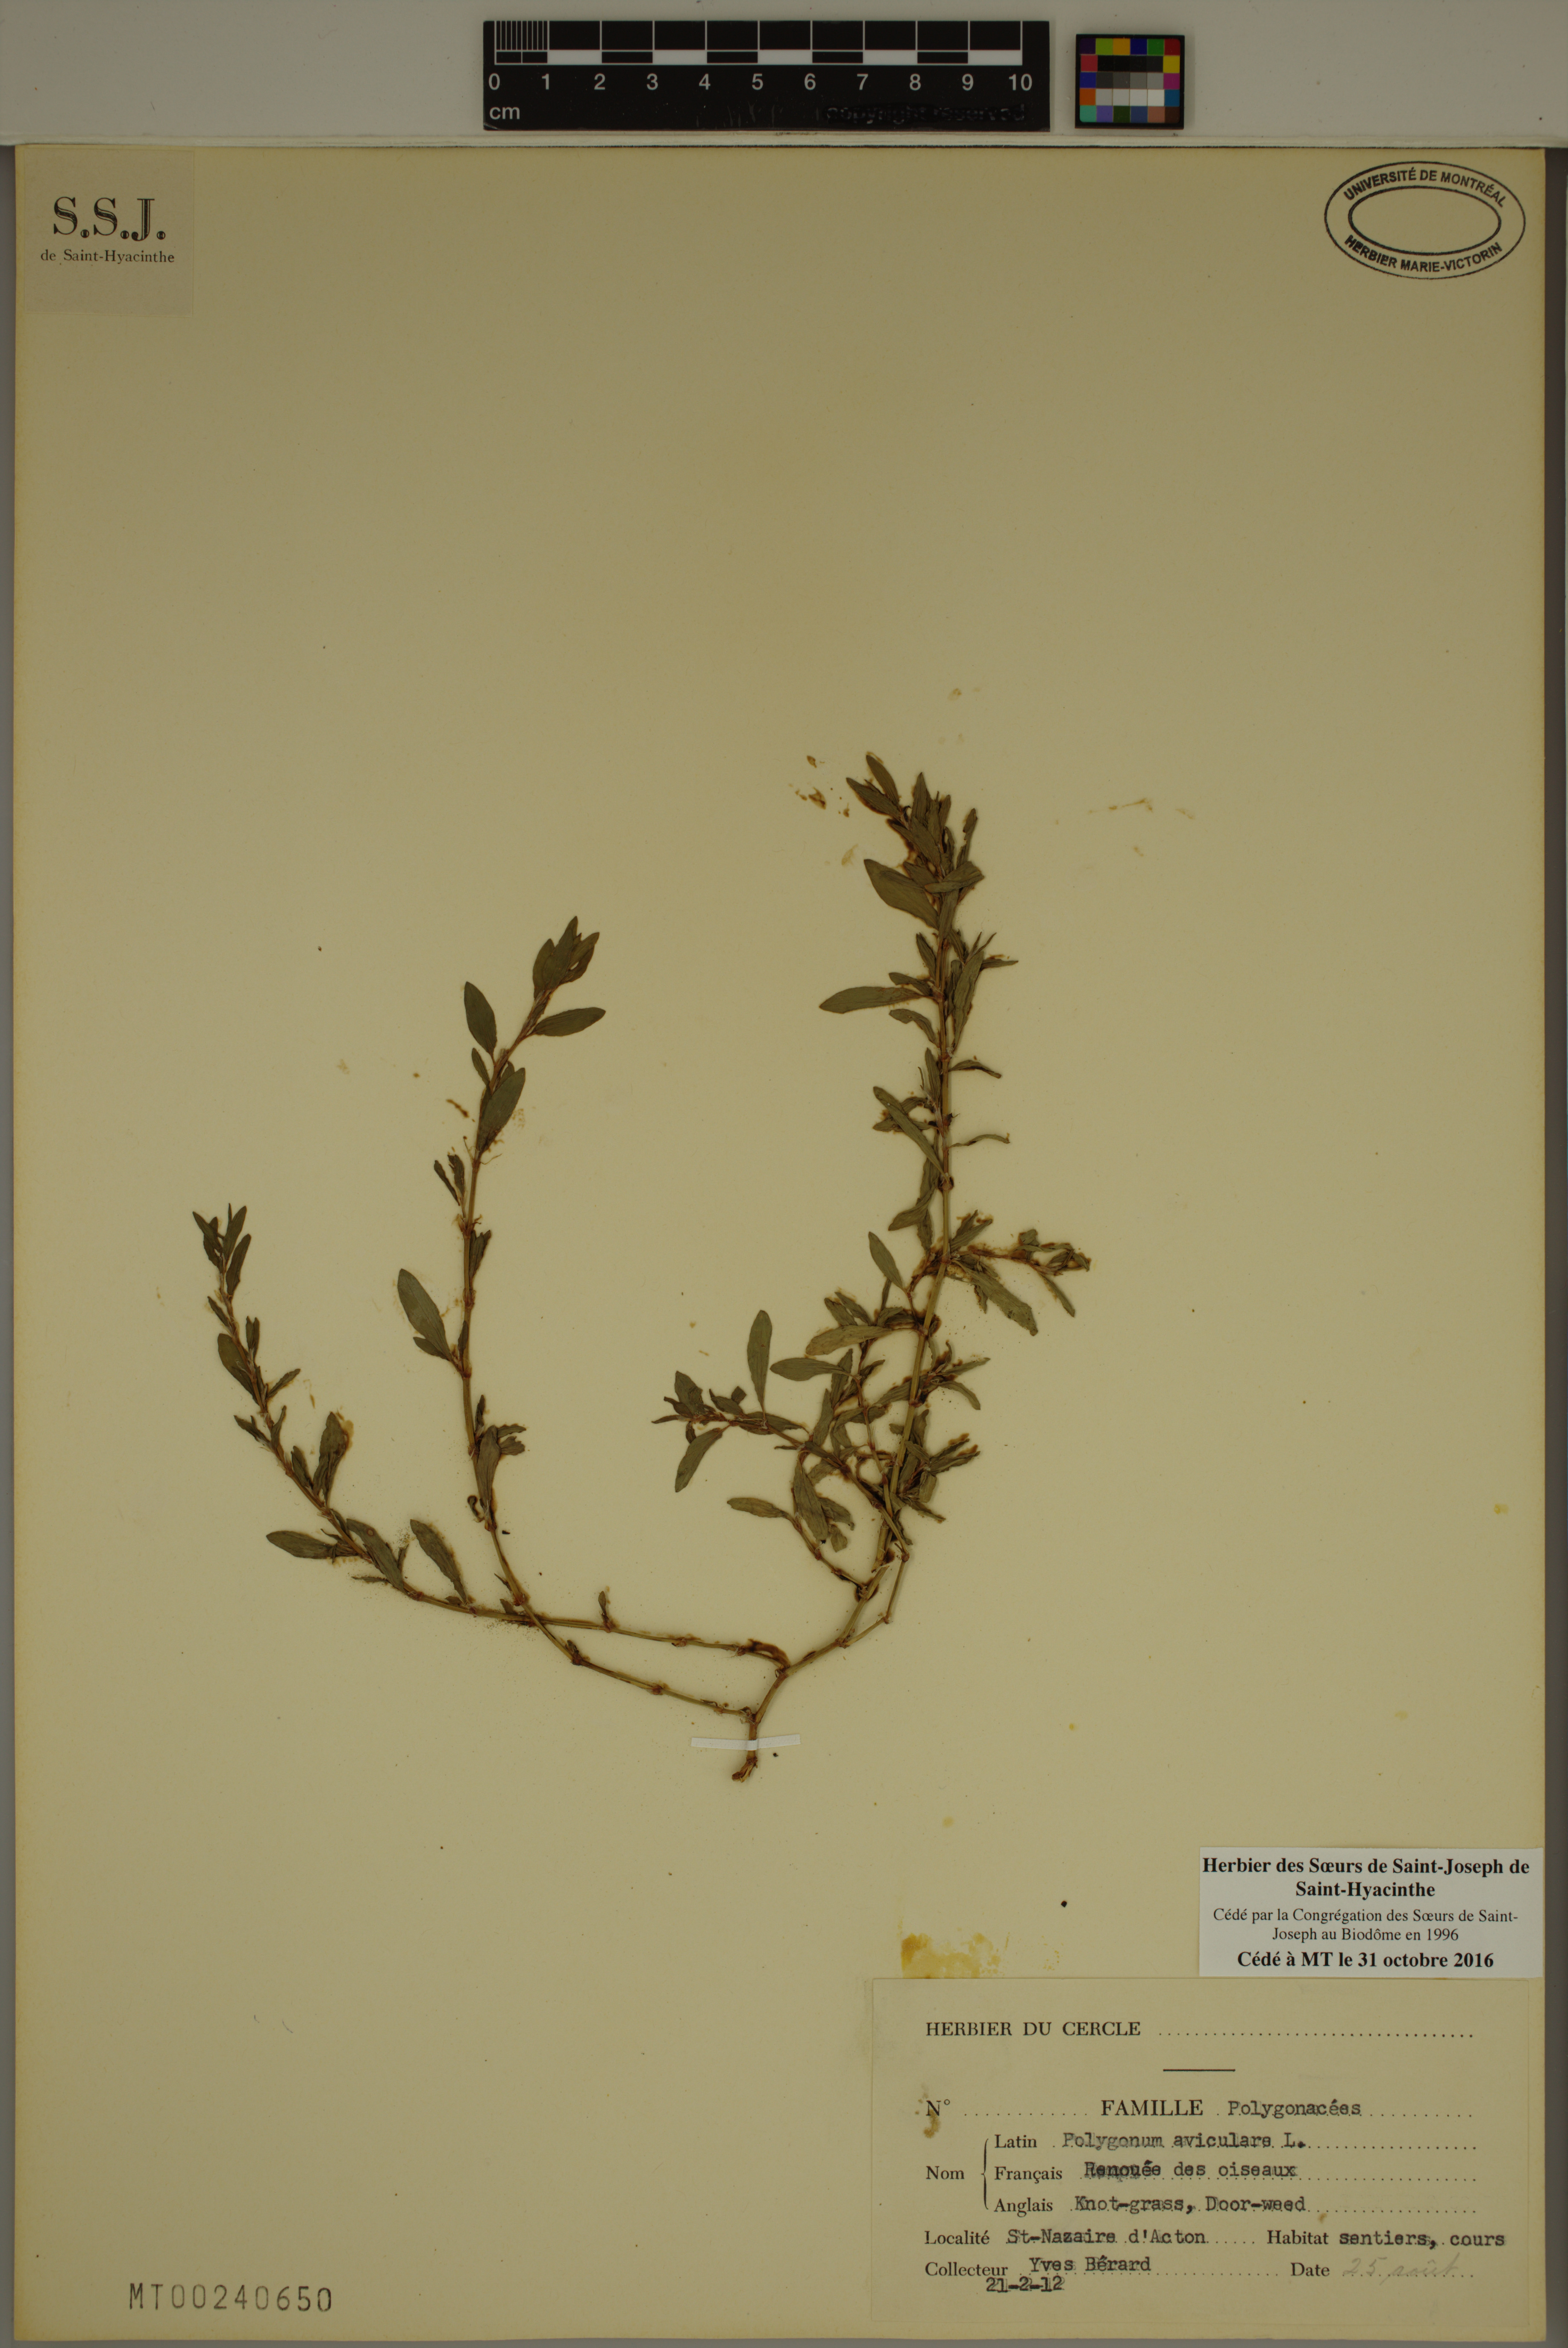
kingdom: Plantae
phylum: Tracheophyta
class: Magnoliopsida
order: Caryophyllales
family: Polygonaceae
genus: Polygonum
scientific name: Polygonum aviculare
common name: Prostrate knotweed
